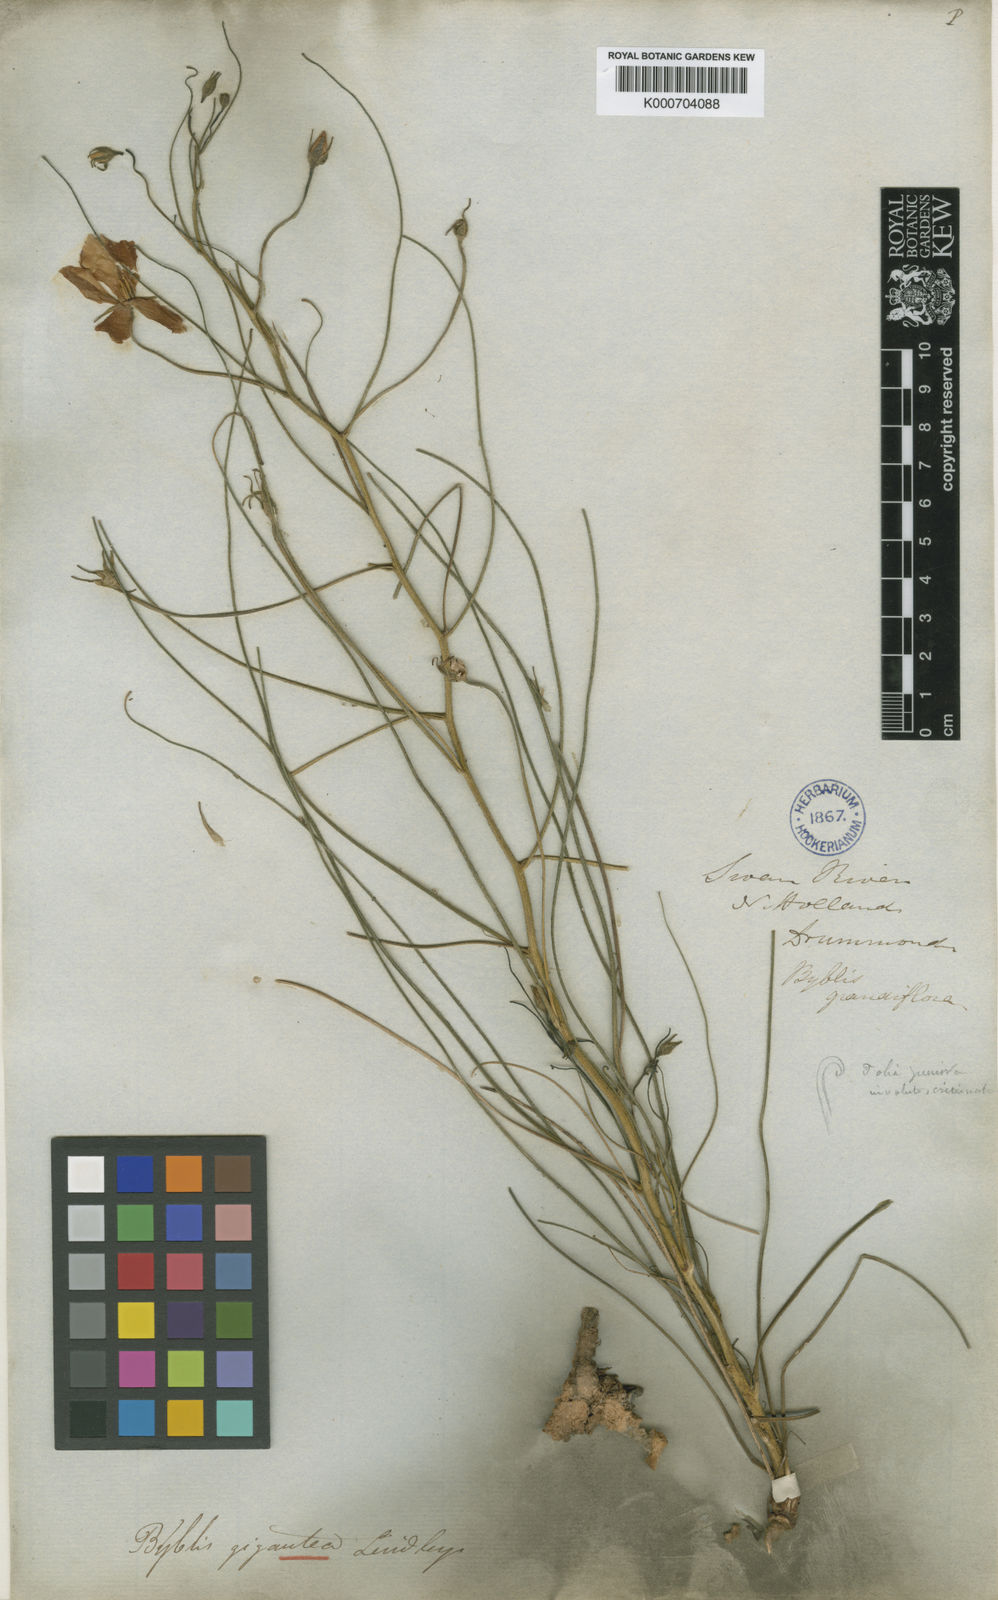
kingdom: Plantae
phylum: Tracheophyta
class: Magnoliopsida
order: Lamiales
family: Byblidaceae
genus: Byblis
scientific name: Byblis gigantea
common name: Rainbowplant
